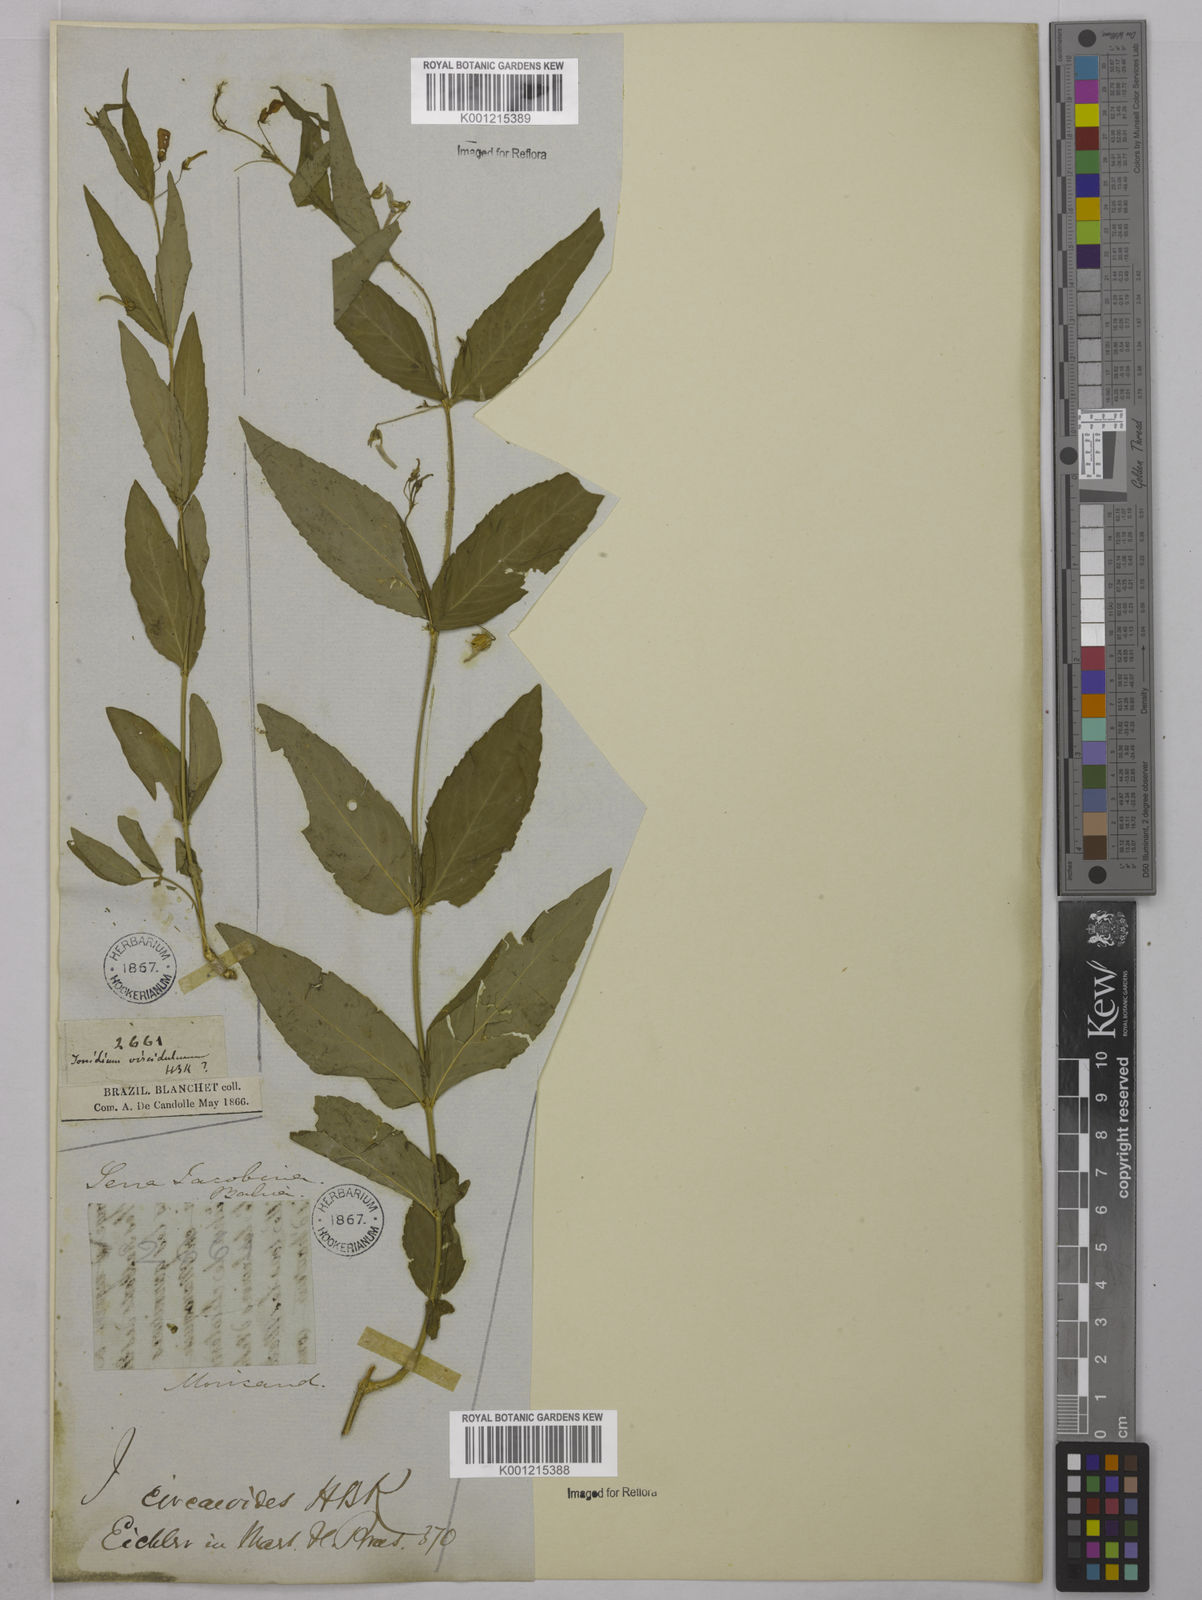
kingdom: Plantae
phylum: Tracheophyta
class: Magnoliopsida
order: Malpighiales
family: Violaceae
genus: Pombalia
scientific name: Pombalia oppositifolia
